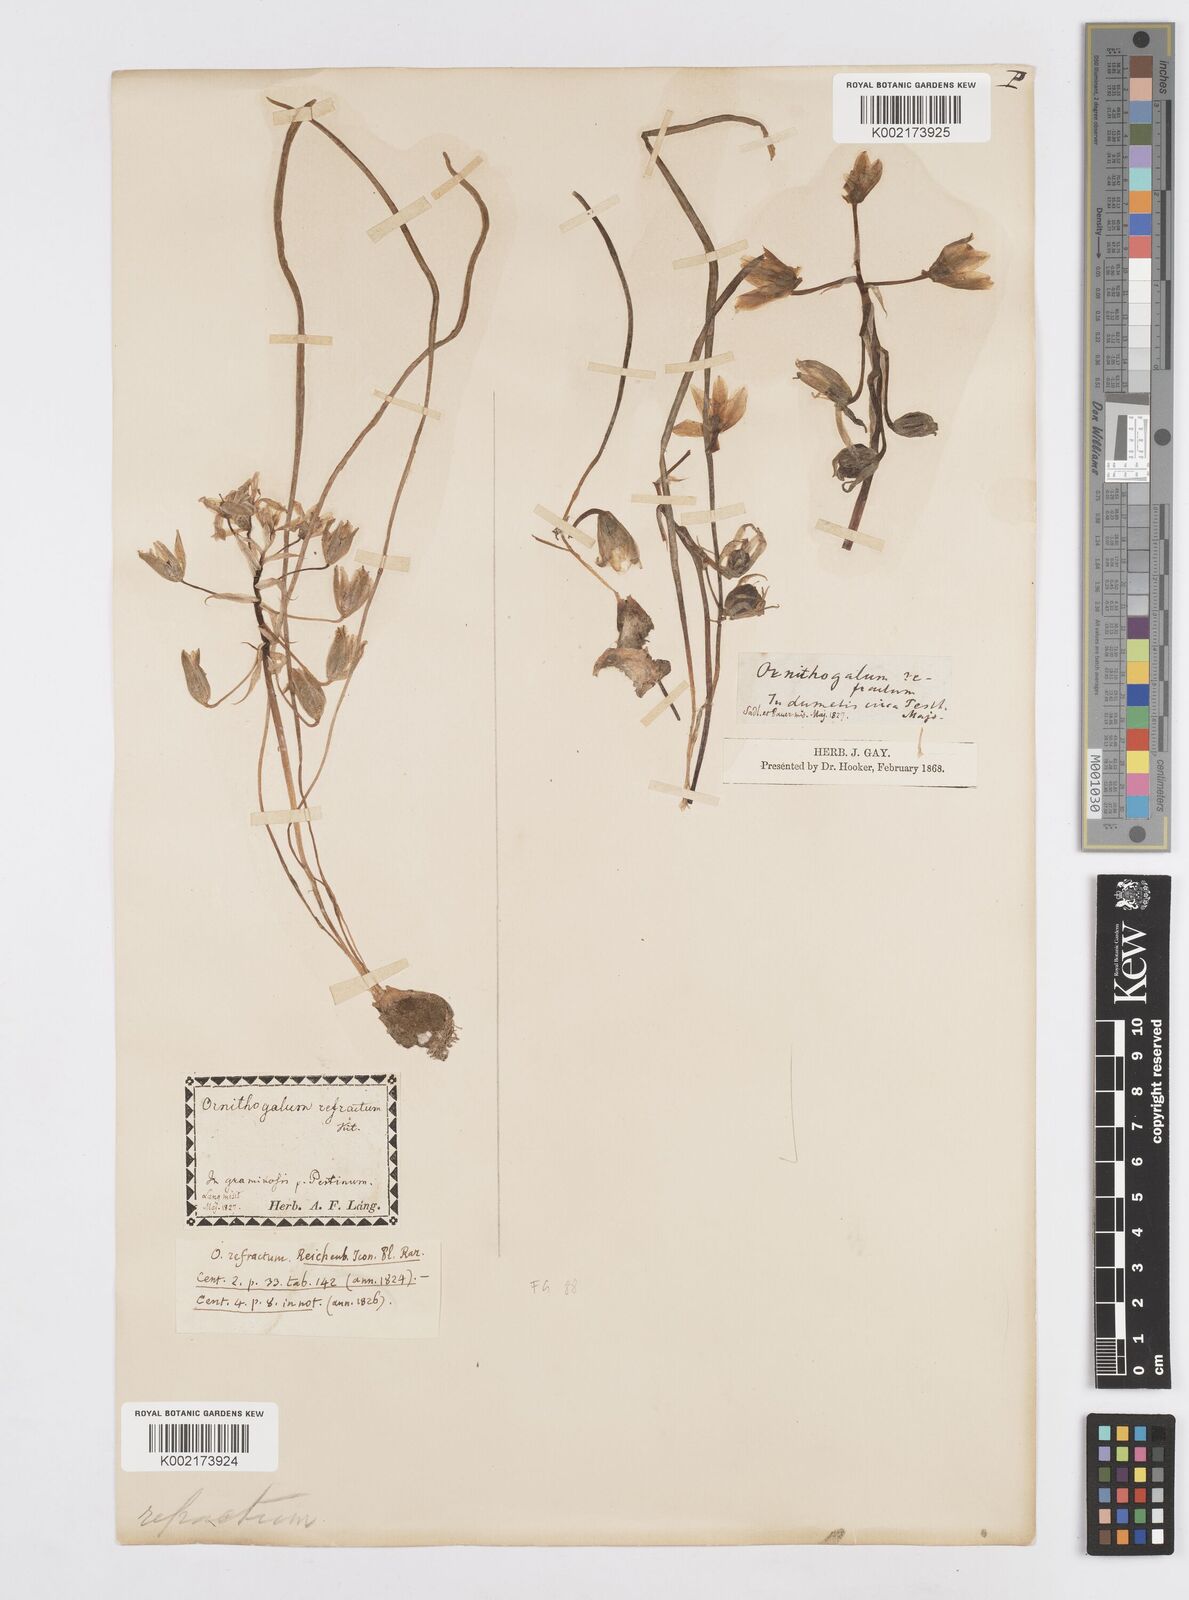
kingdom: Plantae
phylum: Tracheophyta
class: Liliopsida
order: Asparagales
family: Asparagaceae
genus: Ornithogalum
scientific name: Ornithogalum refractum
